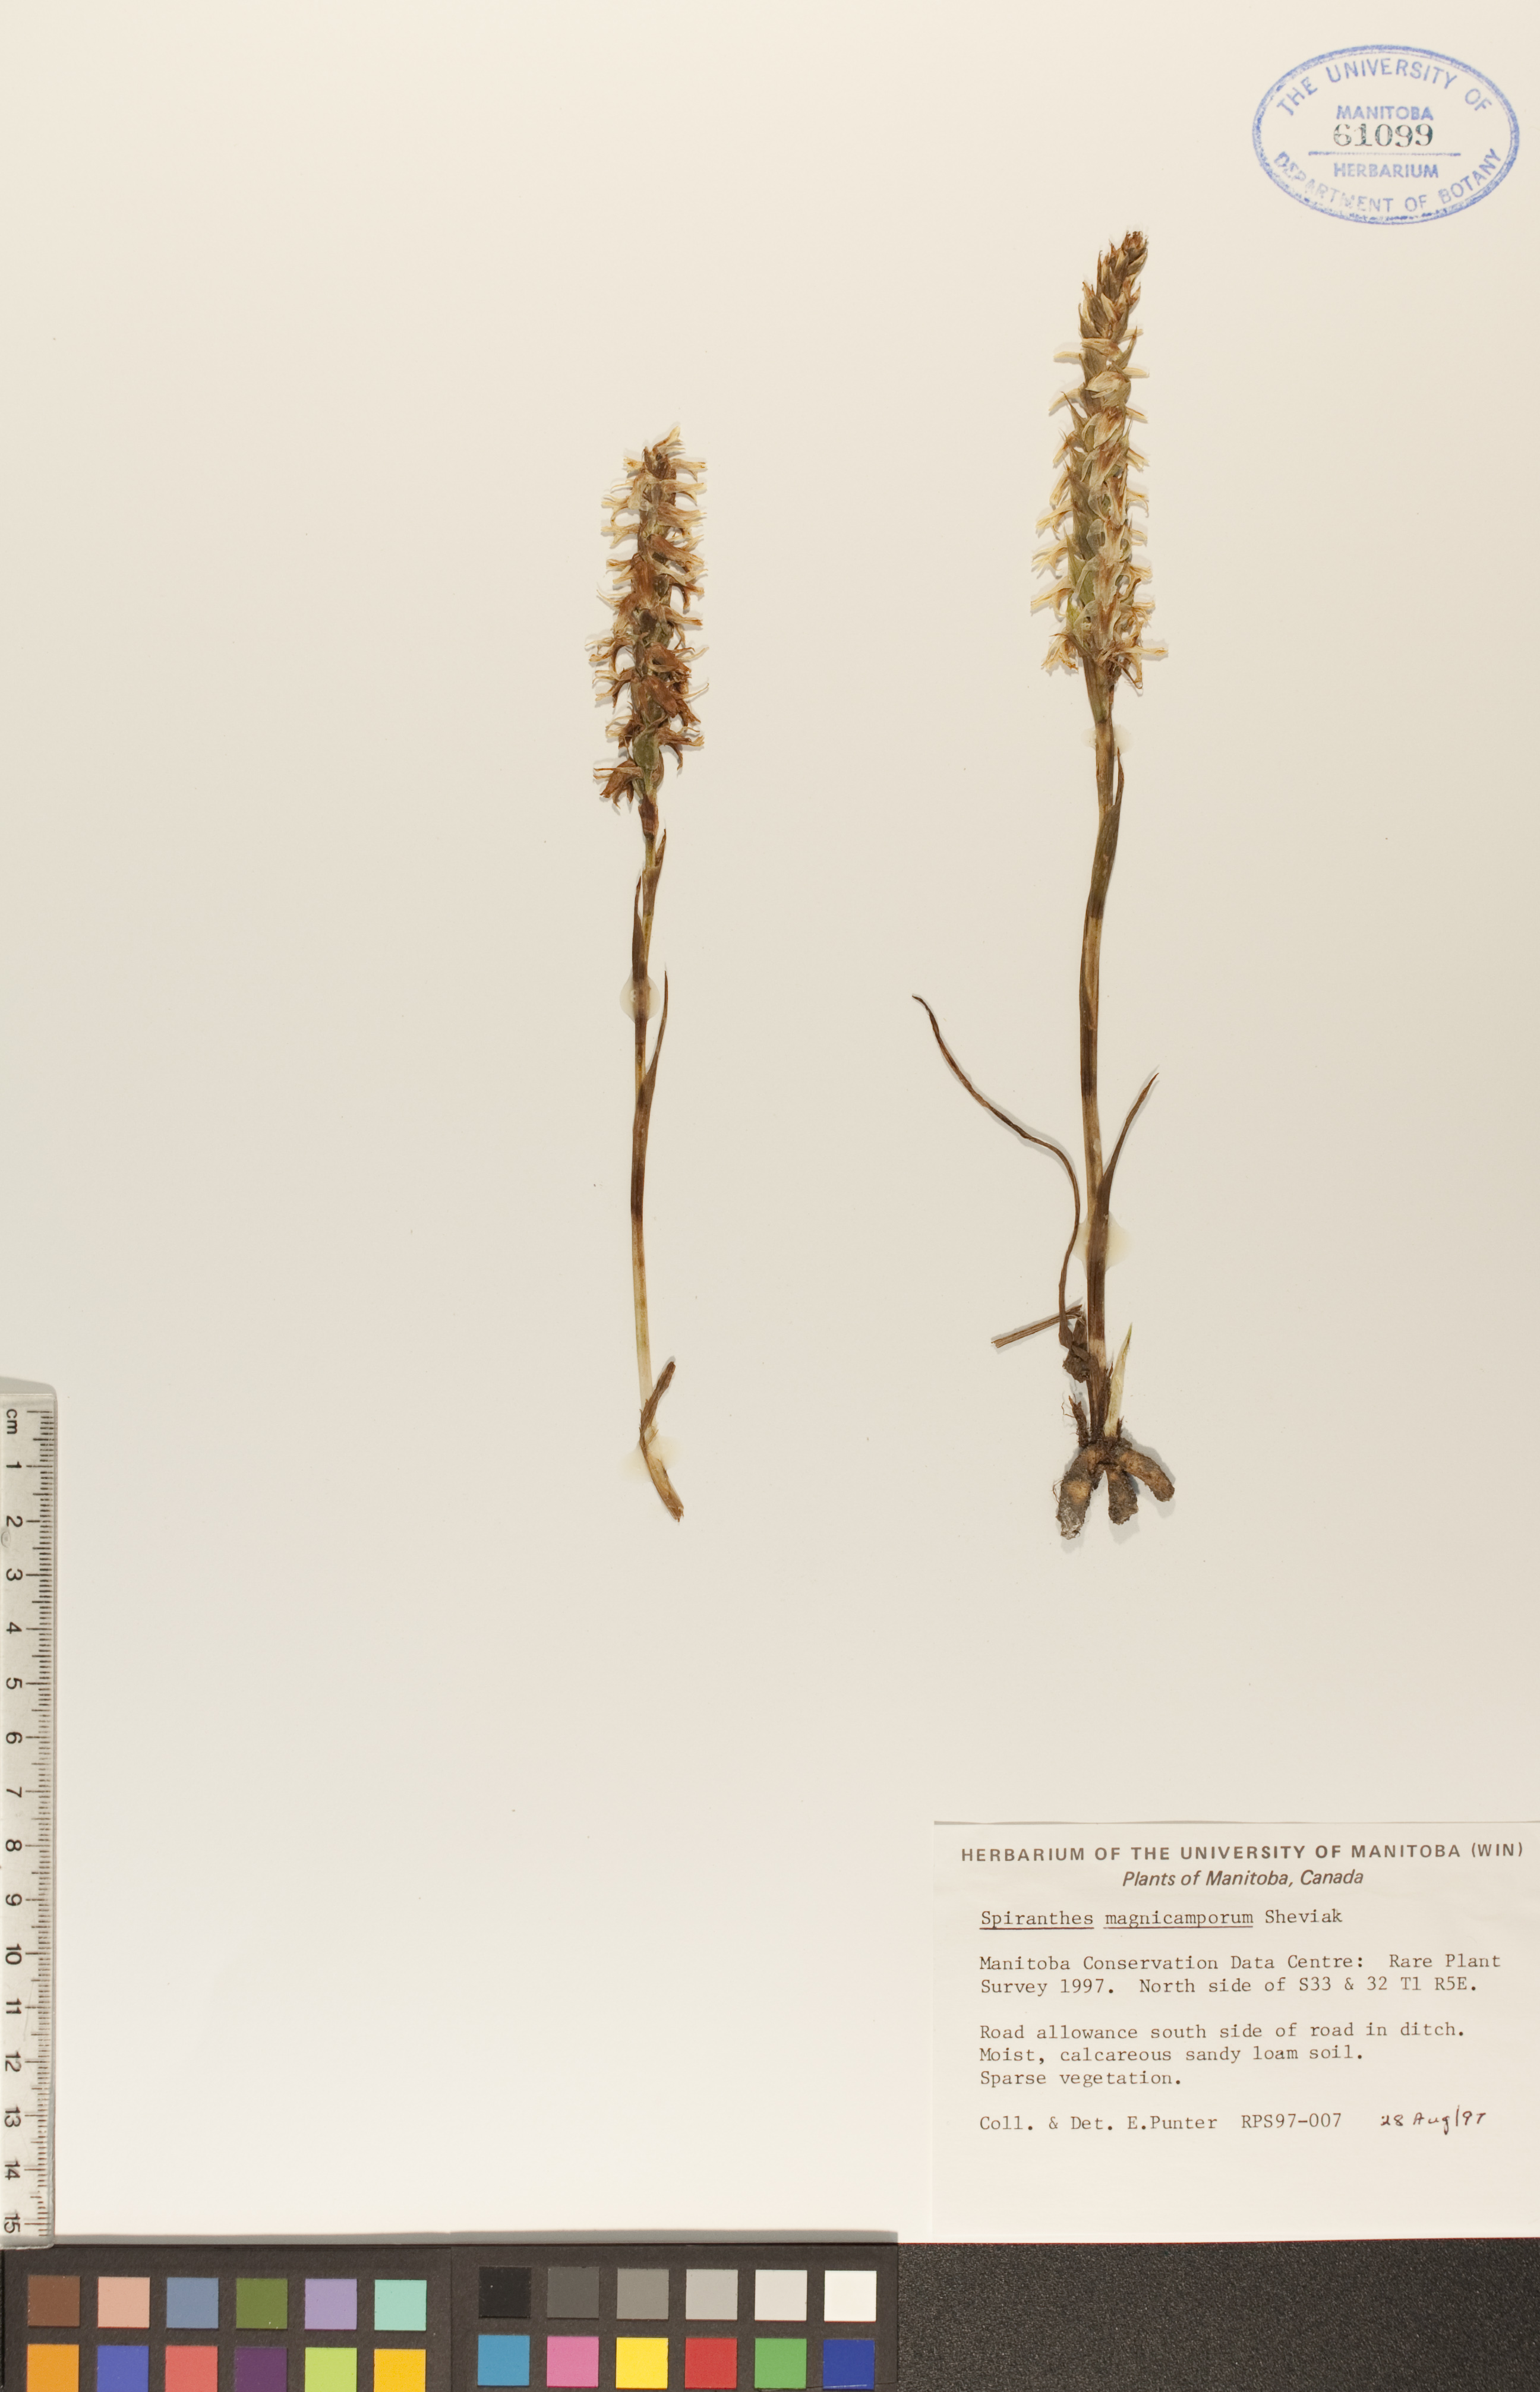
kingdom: Plantae
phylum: Tracheophyta
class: Liliopsida
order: Asparagales
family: Orchidaceae
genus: Spiranthes
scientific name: Spiranthes magnicamporum
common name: Great plains ladies'-tresses
